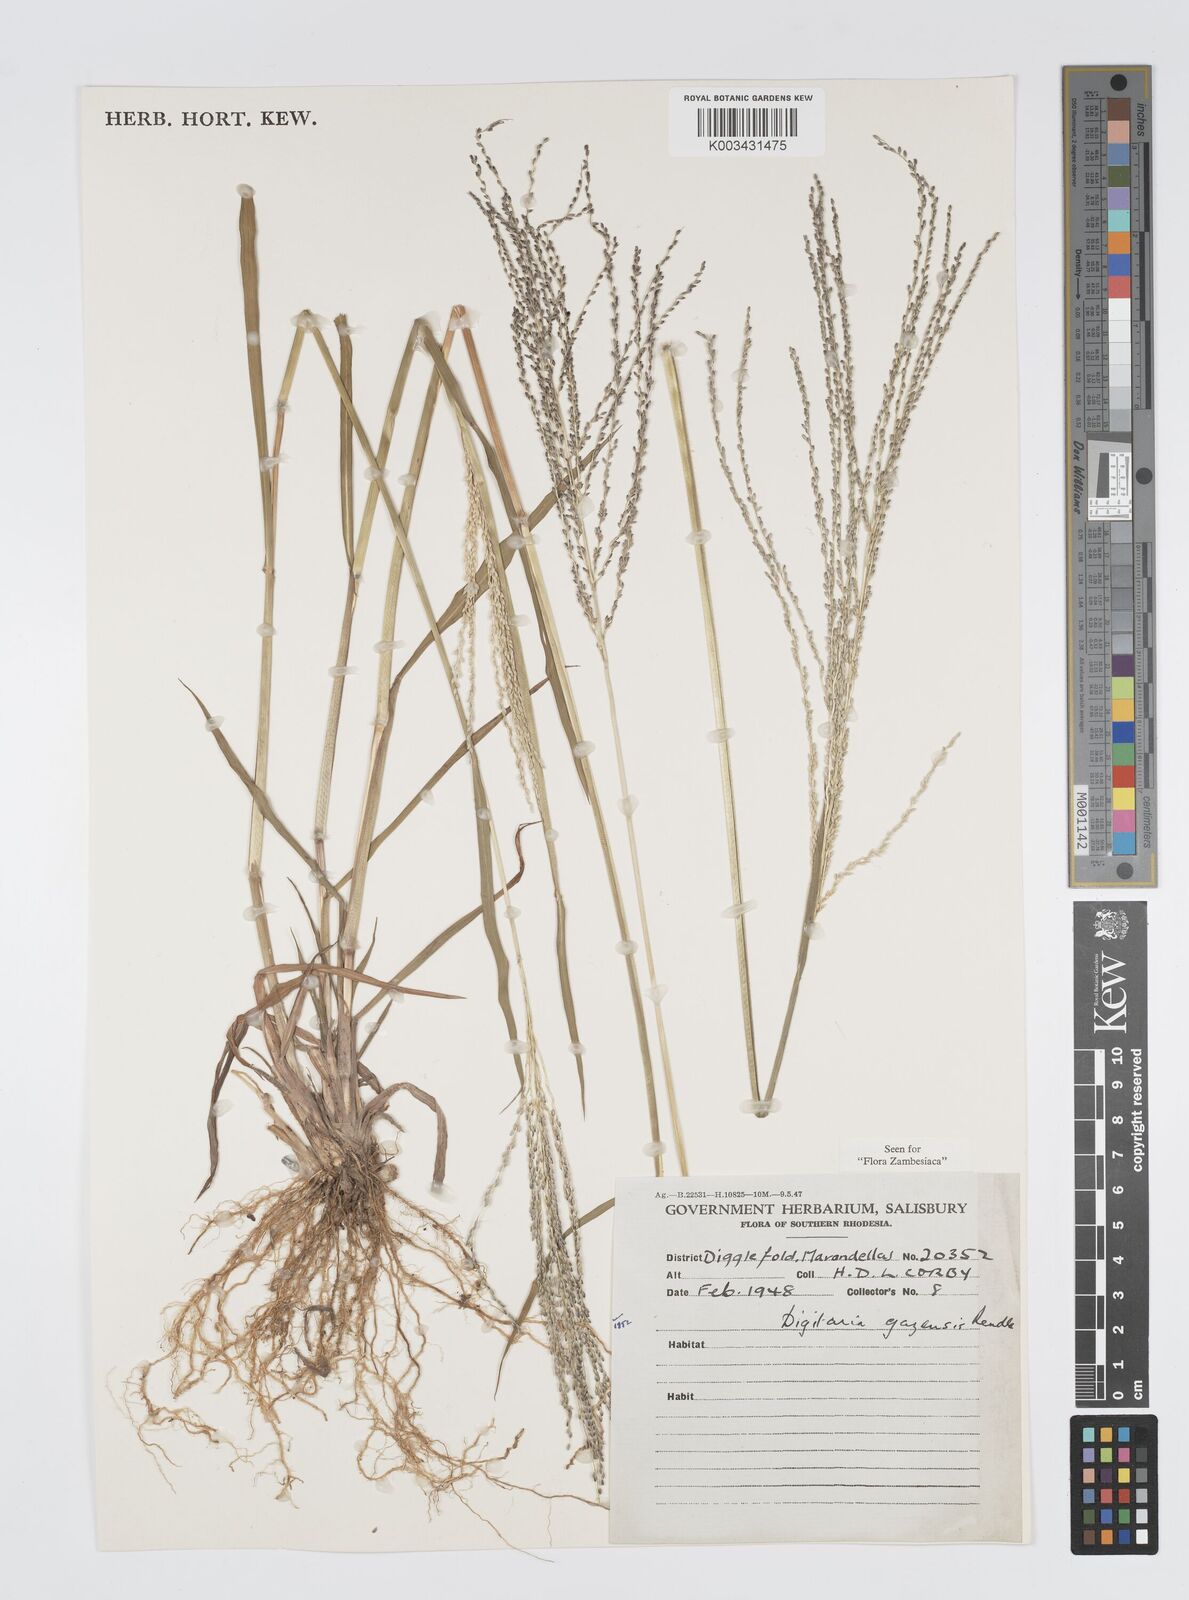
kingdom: Plantae
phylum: Tracheophyta
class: Liliopsida
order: Poales
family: Poaceae
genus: Digitaria
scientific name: Digitaria gazensis
